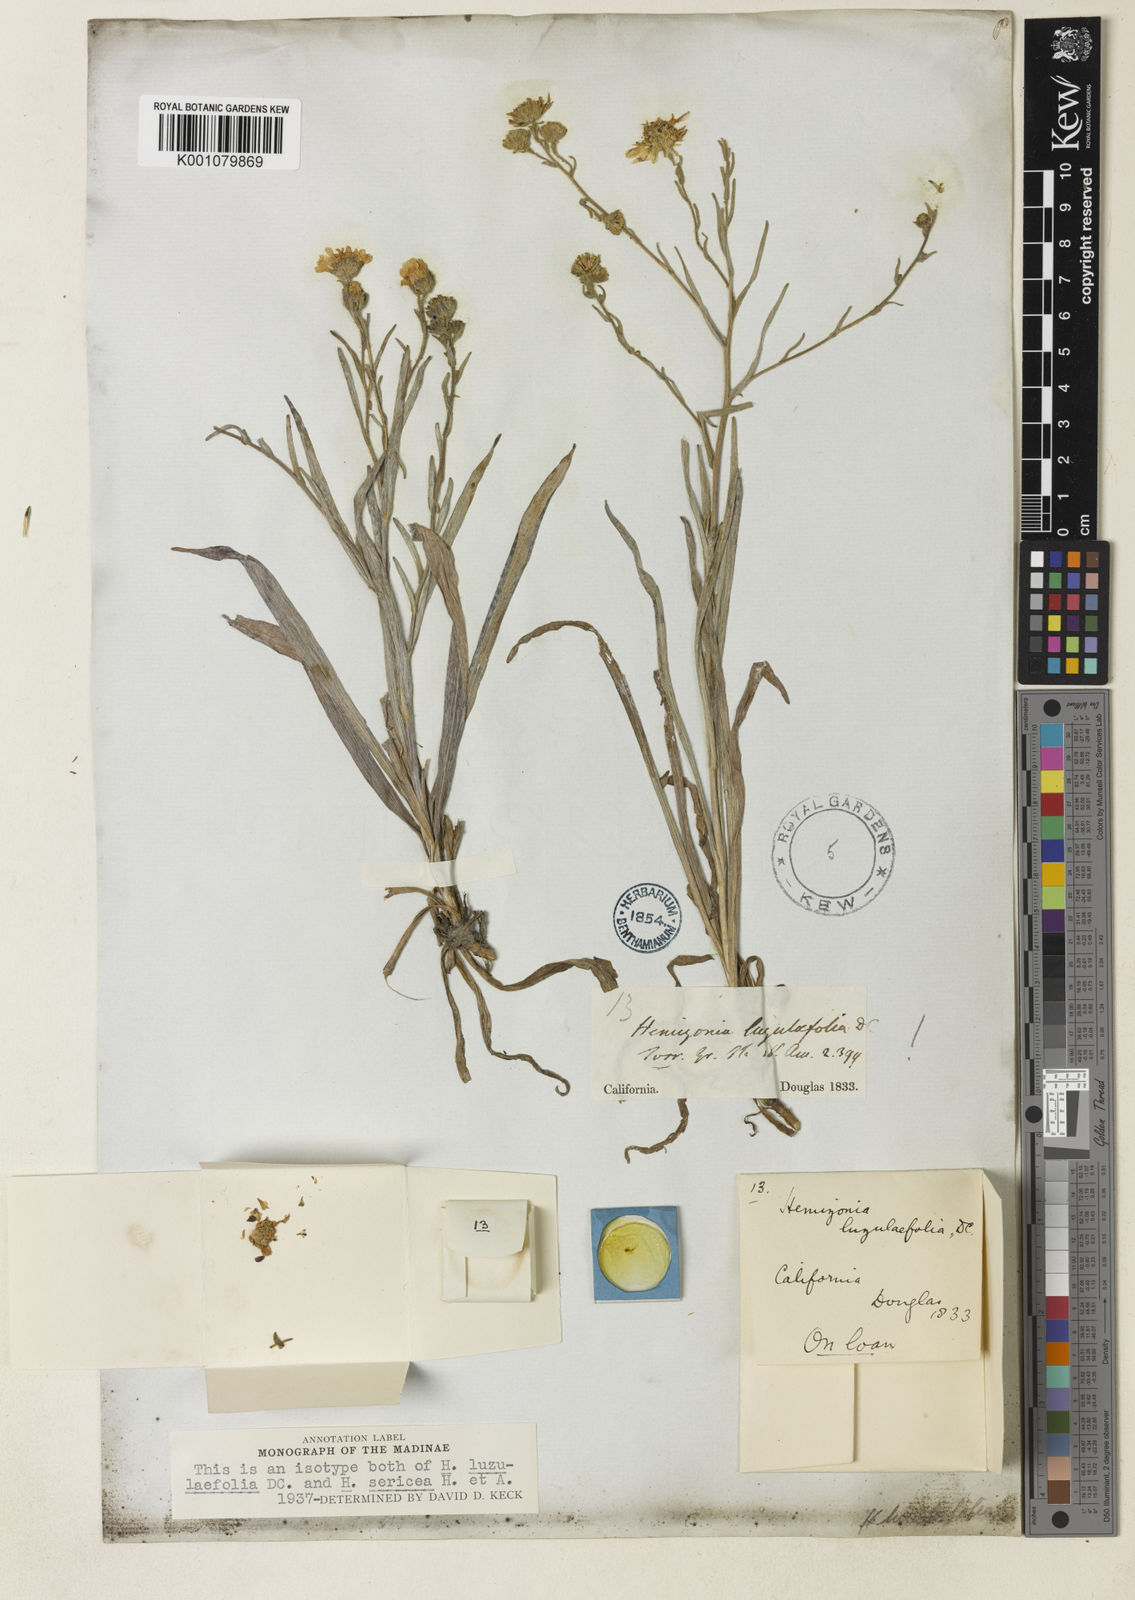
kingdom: Plantae
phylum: Tracheophyta
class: Magnoliopsida
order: Asterales
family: Asteraceae
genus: Hemizonia
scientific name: Hemizonia congesta
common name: Hayfield tarweed
